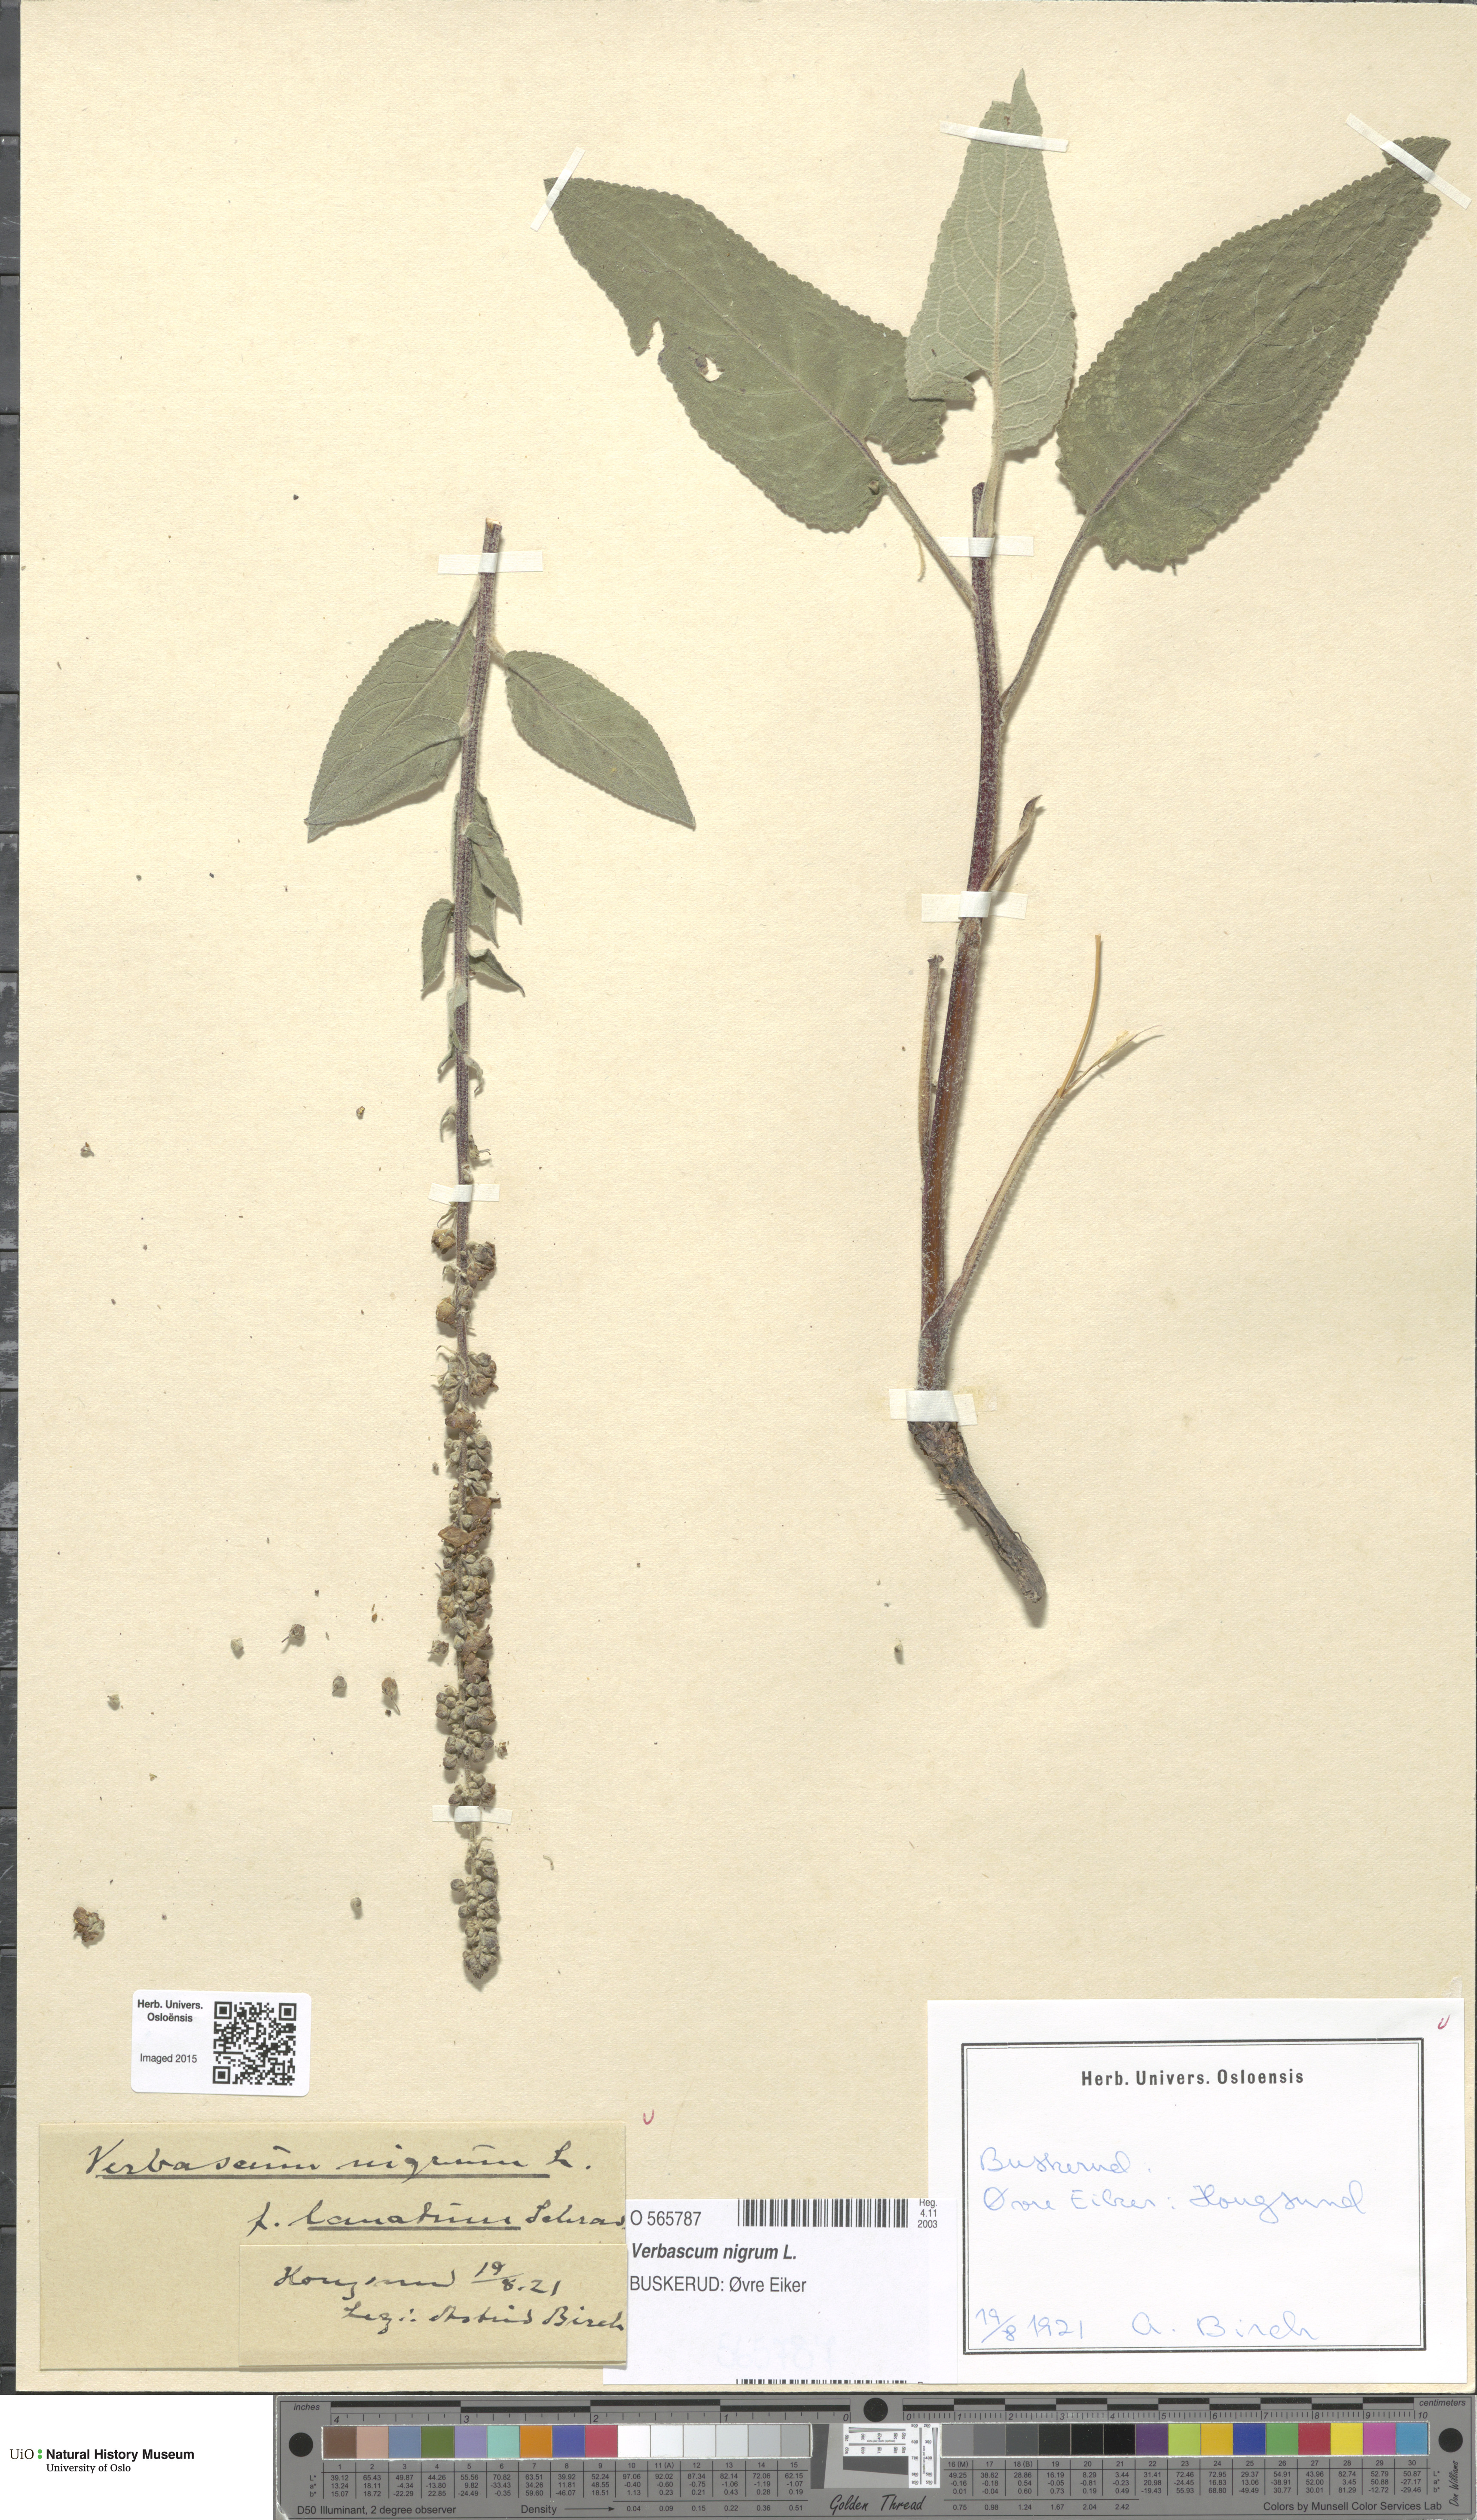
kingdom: Plantae
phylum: Tracheophyta
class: Magnoliopsida
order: Lamiales
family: Scrophulariaceae
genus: Verbascum
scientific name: Verbascum nigrum
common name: Dark mullein
